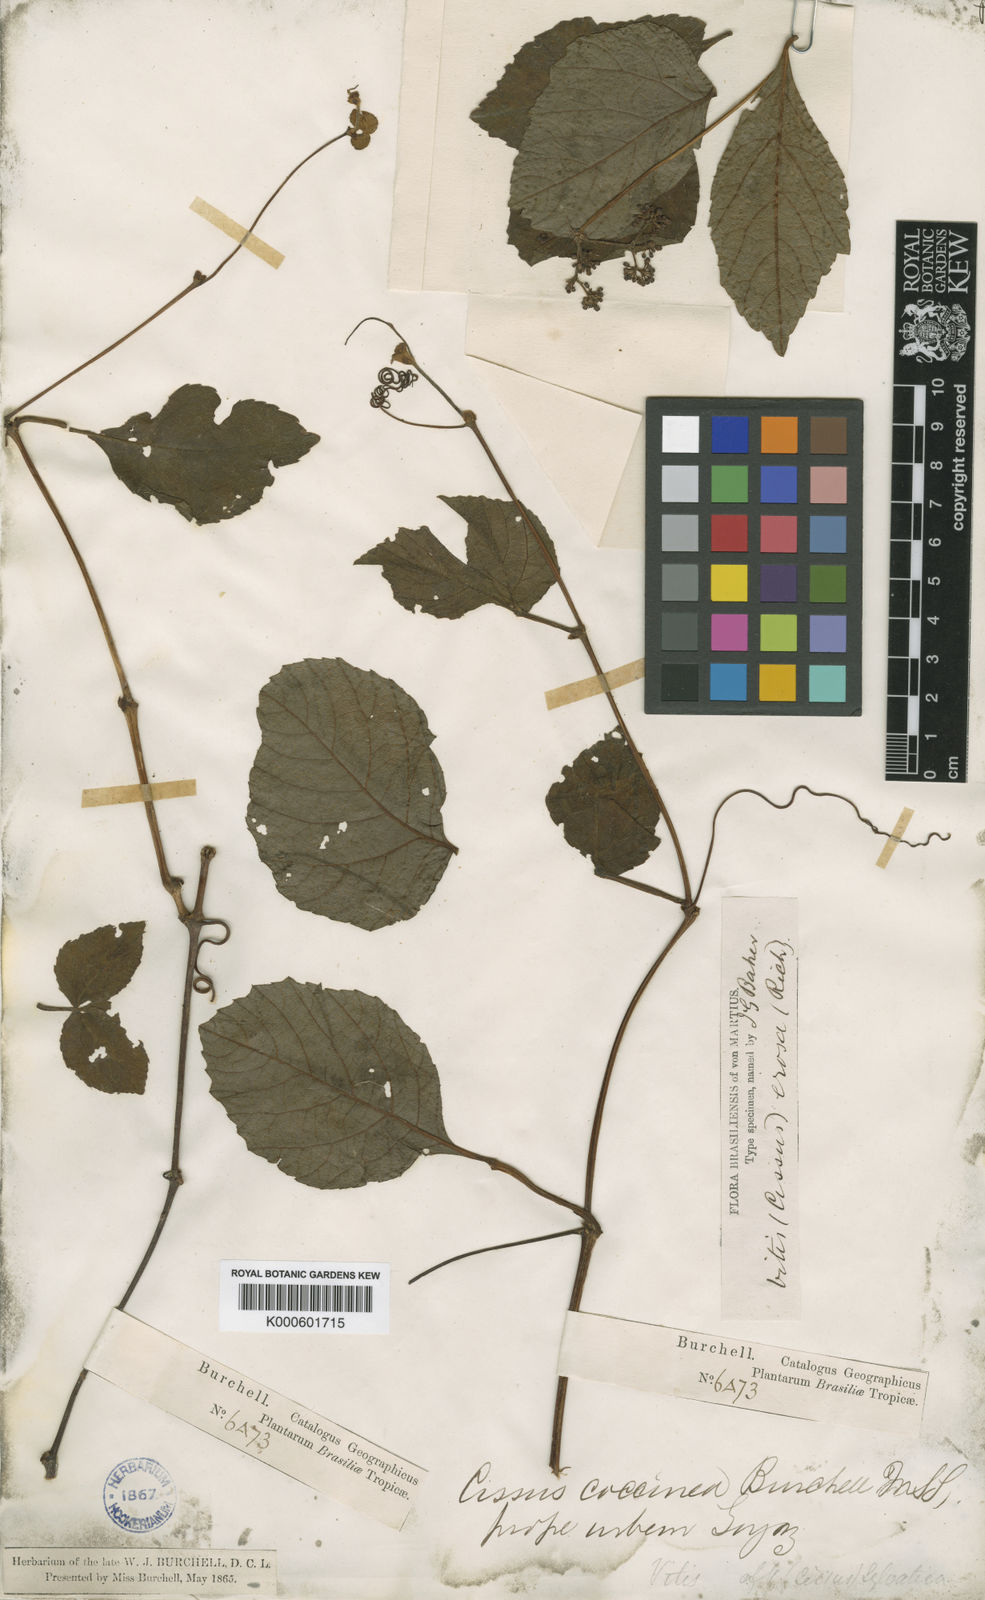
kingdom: Plantae
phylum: Tracheophyta
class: Magnoliopsida
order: Vitales
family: Vitaceae
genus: Cissus
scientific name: Cissus erosa
